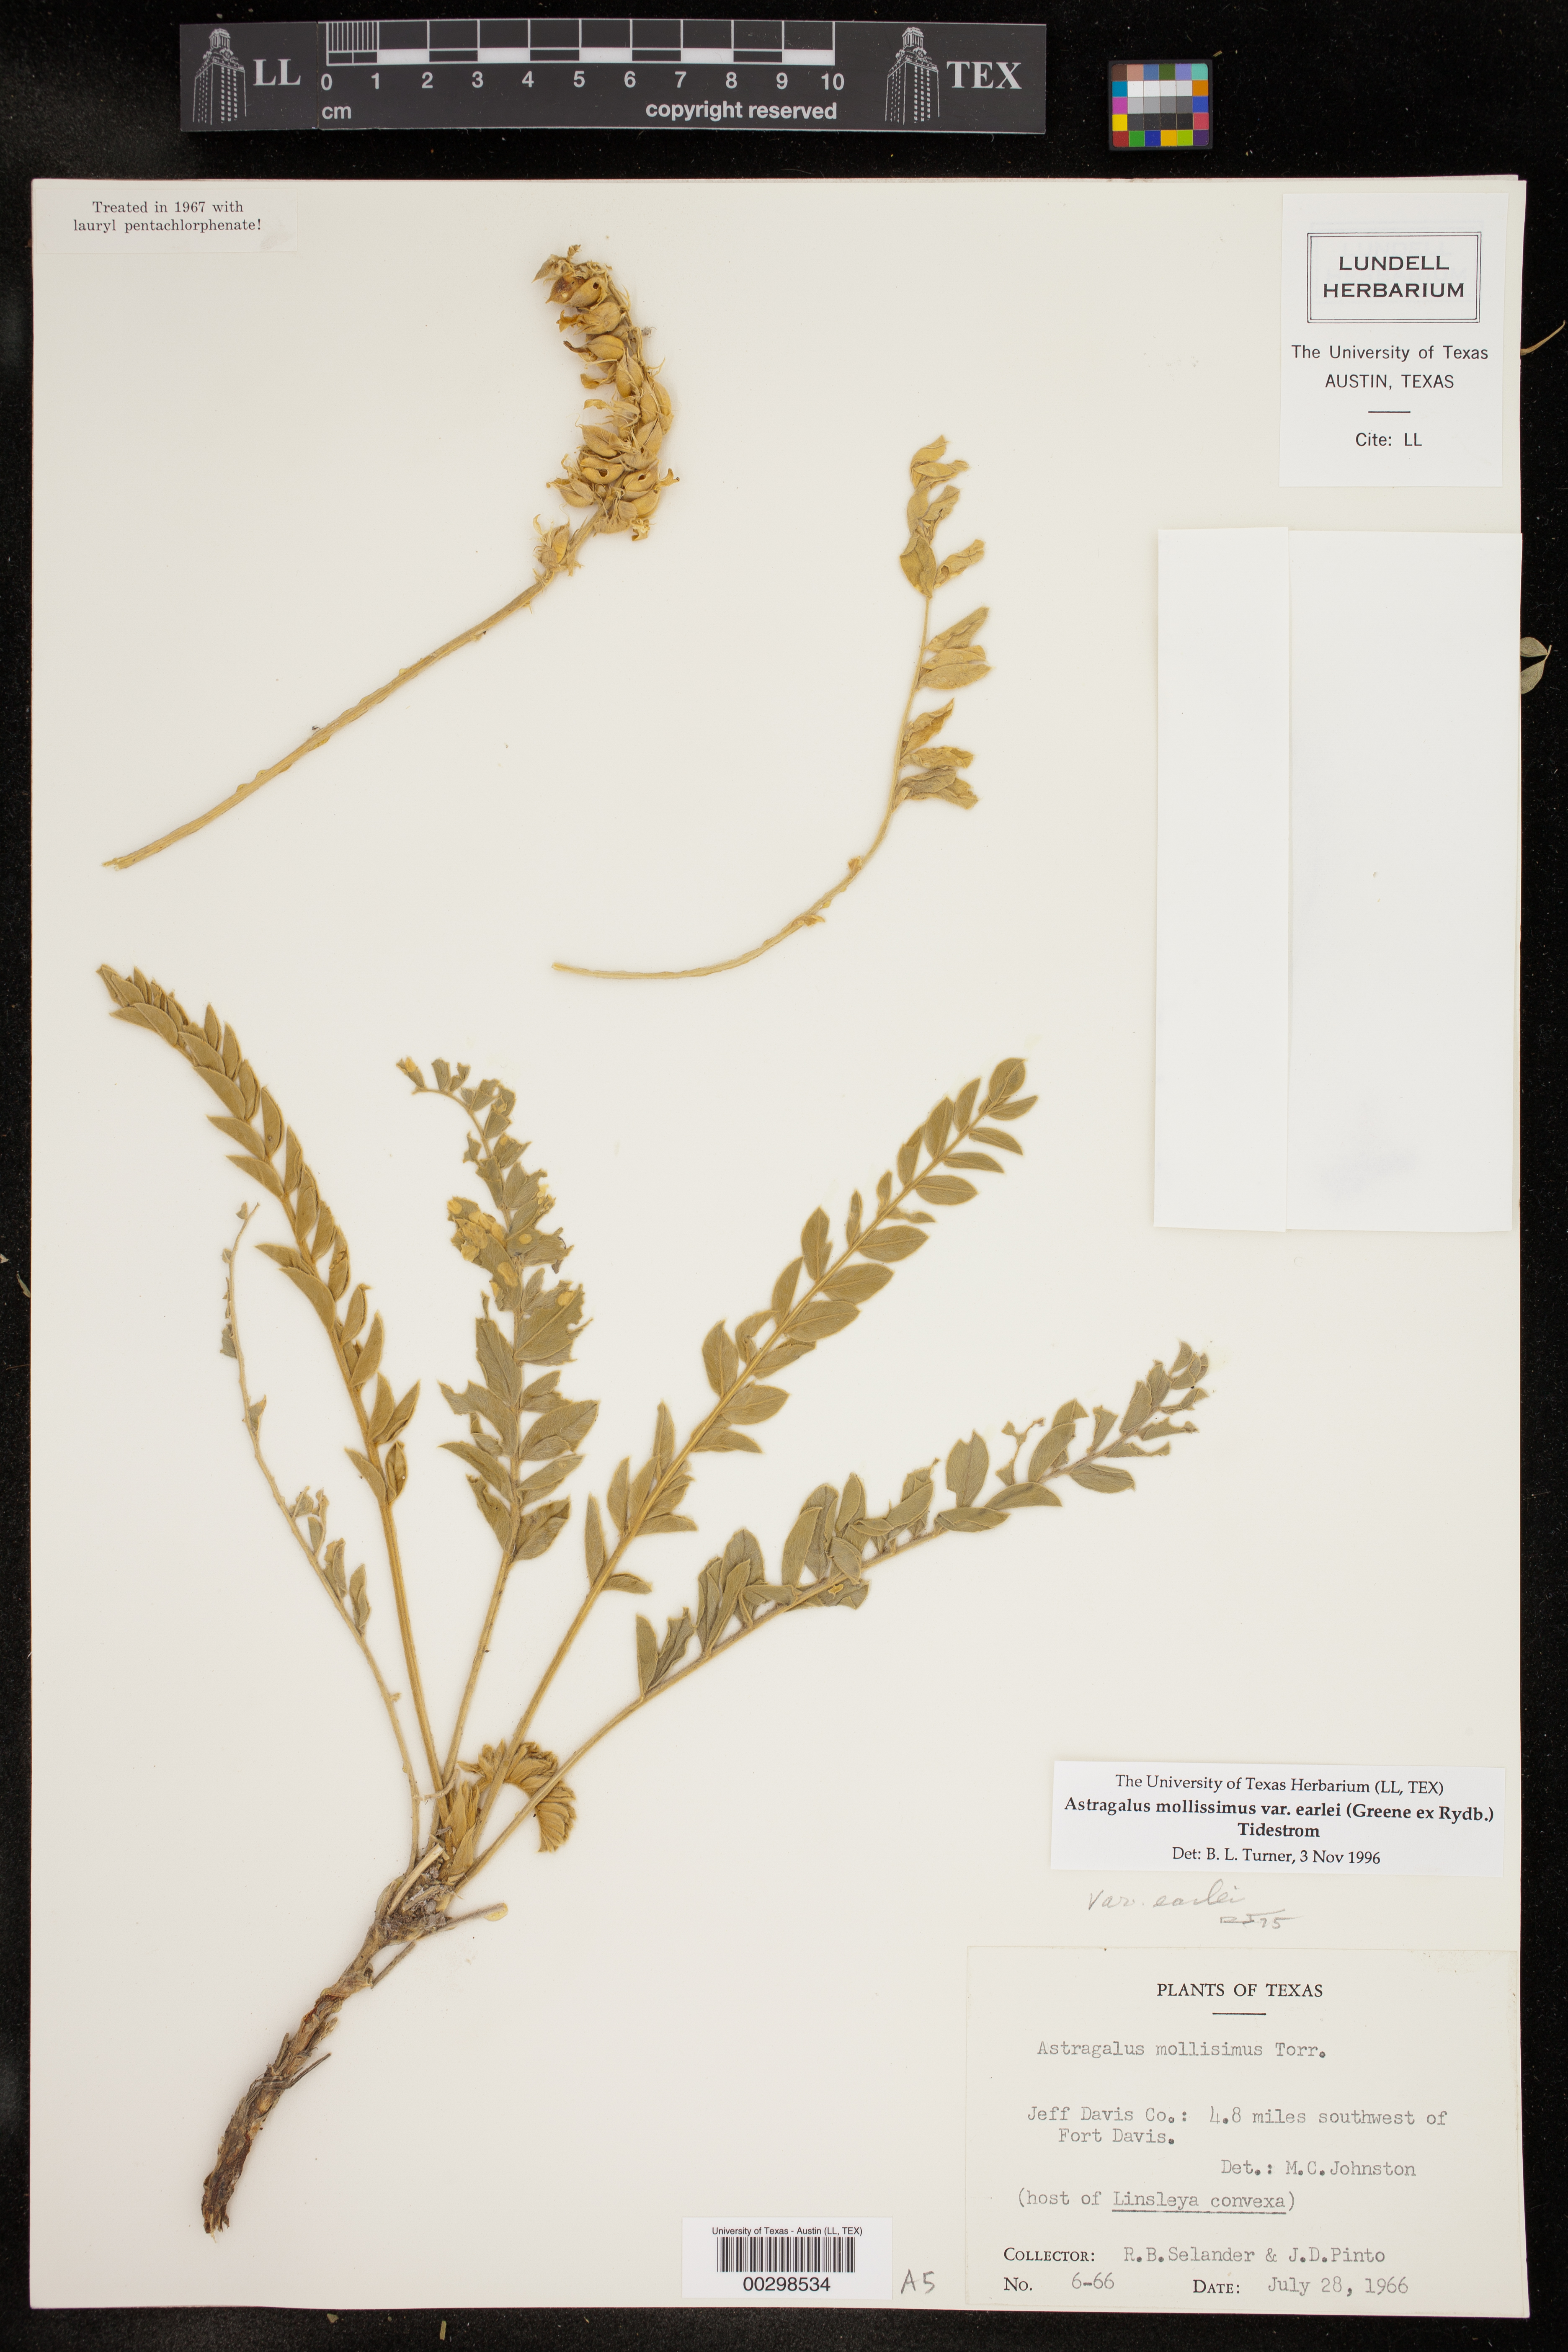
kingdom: Plantae
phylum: Tracheophyta
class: Magnoliopsida
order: Fabales
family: Fabaceae
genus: Astragalus
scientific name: Astragalus mollissimus
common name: Woolly locoweed
